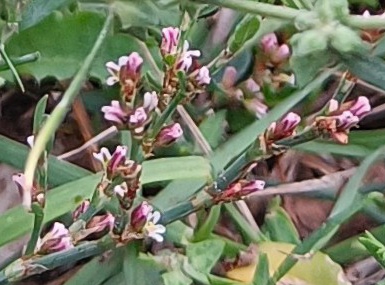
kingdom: Plantae
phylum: Tracheophyta
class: Magnoliopsida
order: Caryophyllales
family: Polygonaceae
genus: Polygonum
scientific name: Polygonum aviculare
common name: Vej-pileurt
